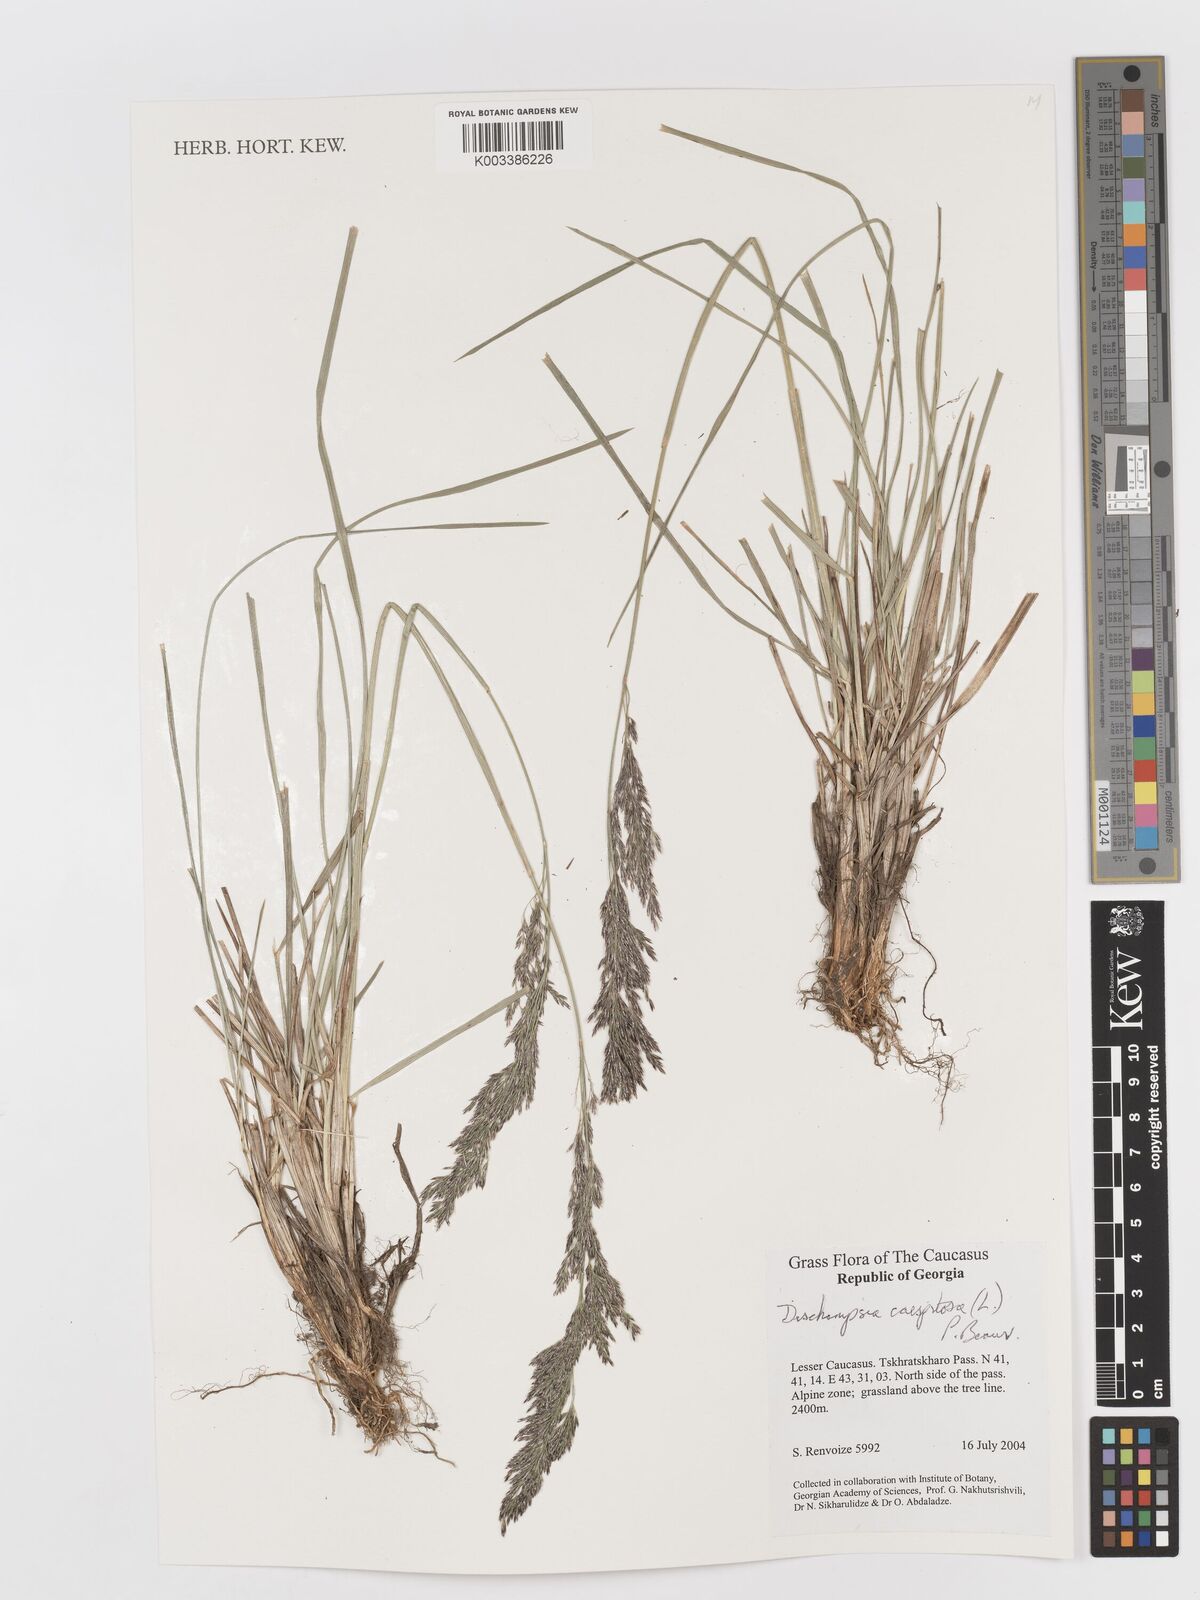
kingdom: Plantae
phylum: Tracheophyta
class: Liliopsida
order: Poales
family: Poaceae
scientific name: Poaceae
